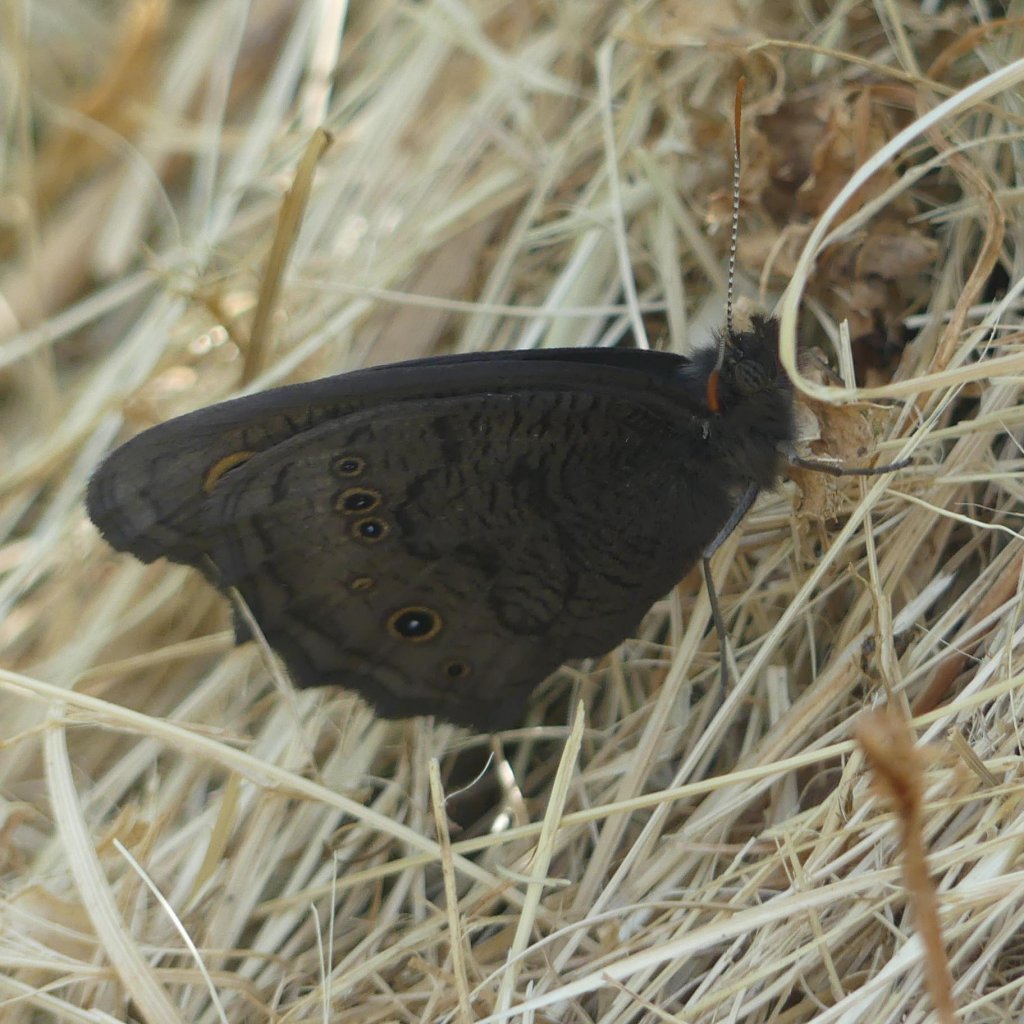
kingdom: Animalia
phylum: Arthropoda
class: Insecta
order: Lepidoptera
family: Nymphalidae
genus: Cercyonis
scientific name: Cercyonis pegala
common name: Common Wood-Nymph
